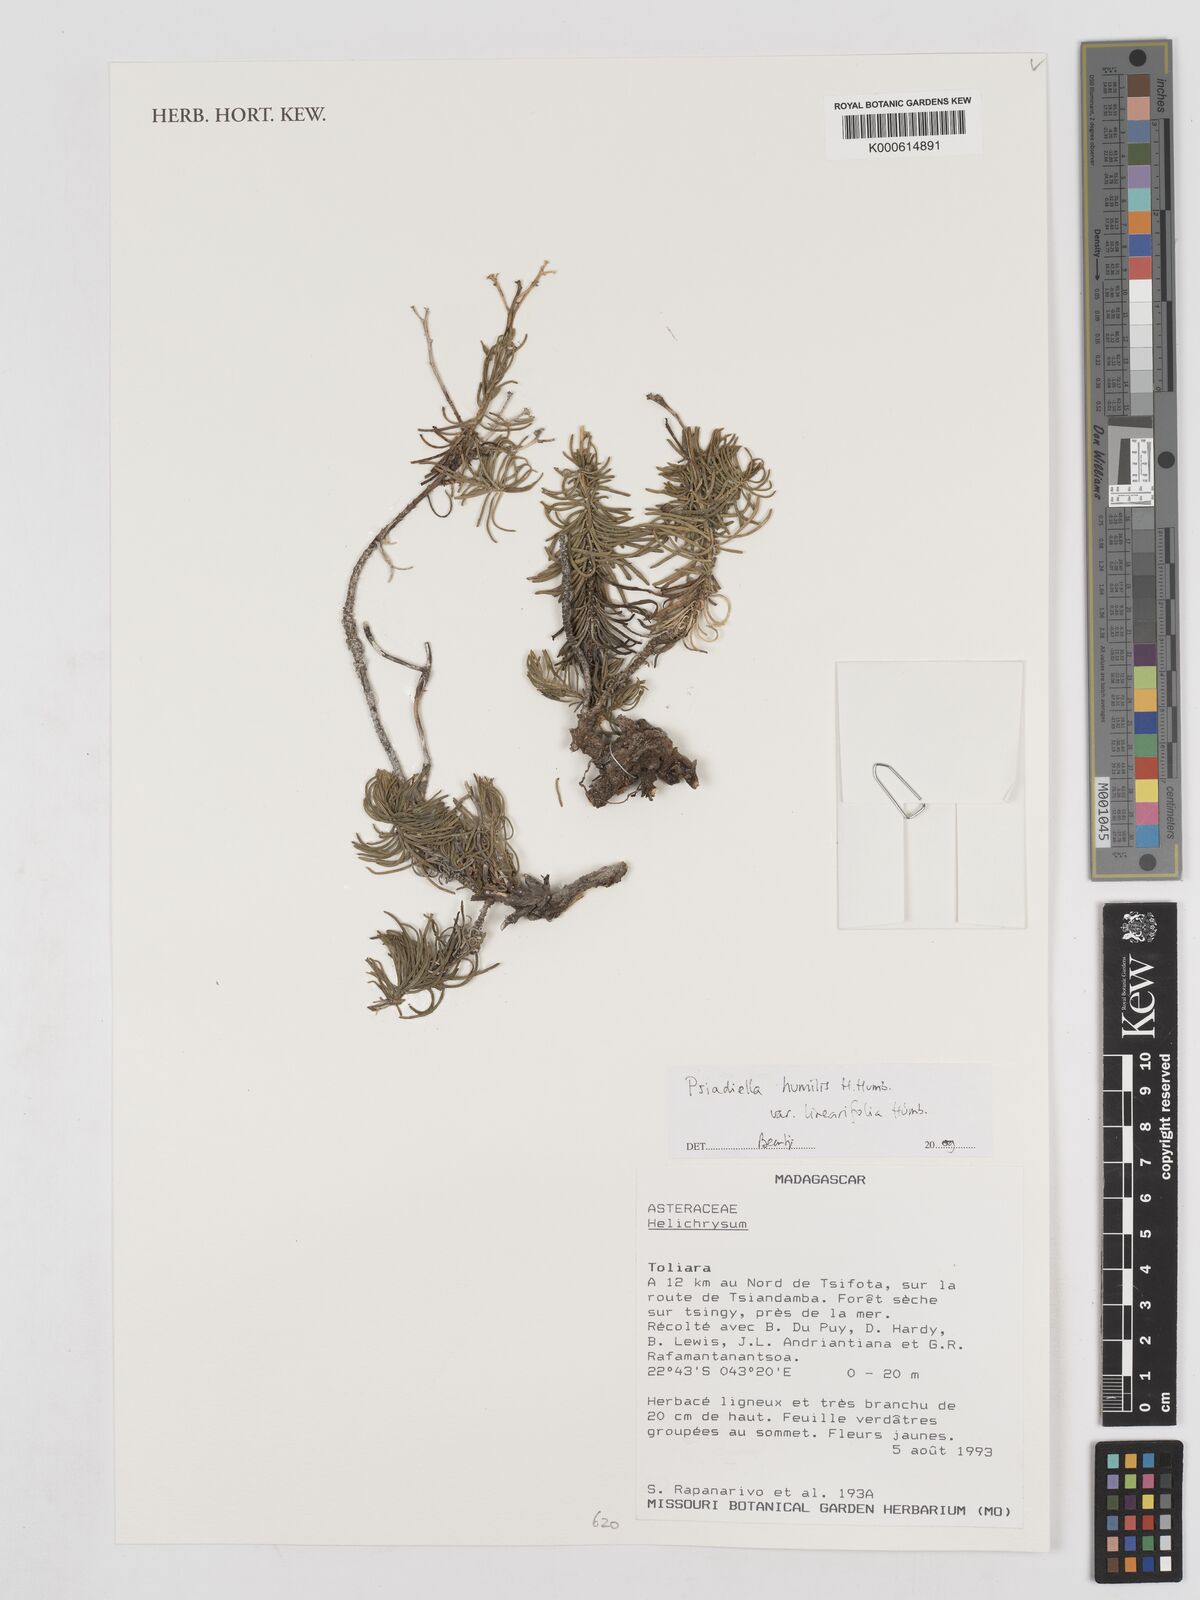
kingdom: Plantae
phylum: Tracheophyta
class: Magnoliopsida
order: Asterales
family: Asteraceae
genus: Psiadia
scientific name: Psiadia humilis
